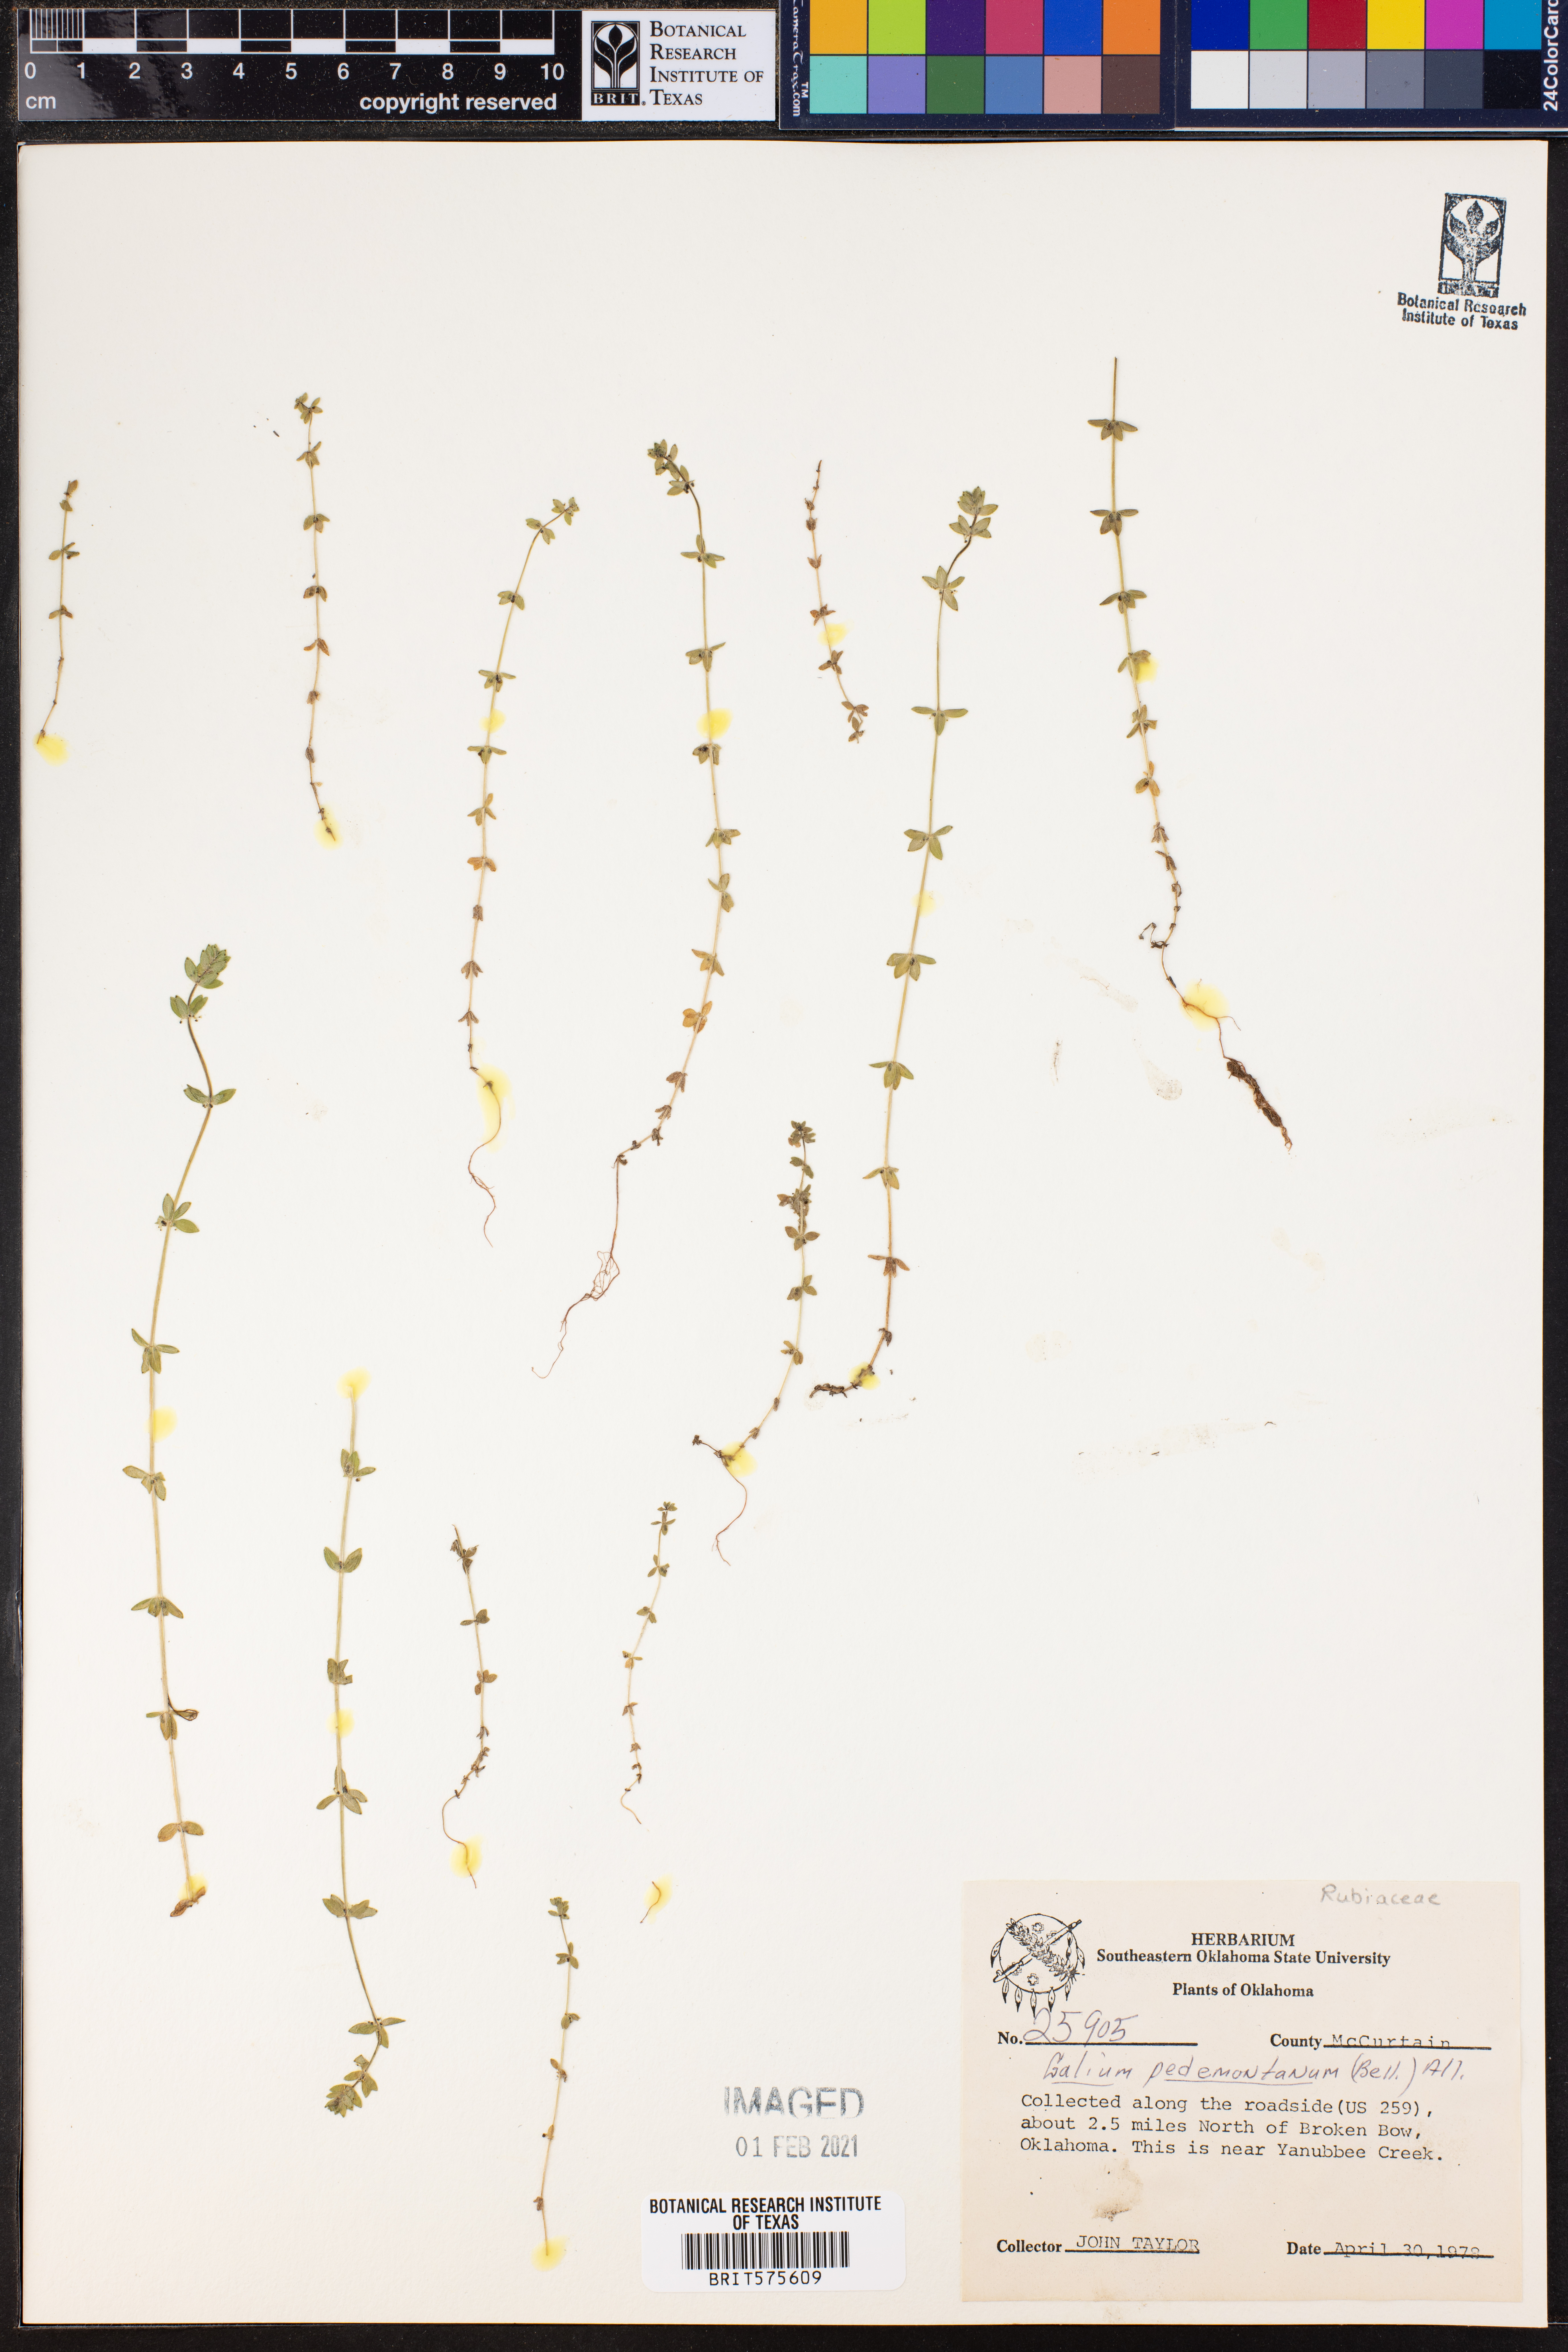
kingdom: Plantae
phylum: Tracheophyta
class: Magnoliopsida
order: Gentianales
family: Rubiaceae
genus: Cruciata
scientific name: Cruciata pedemontana
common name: Piedmont bedstraw
